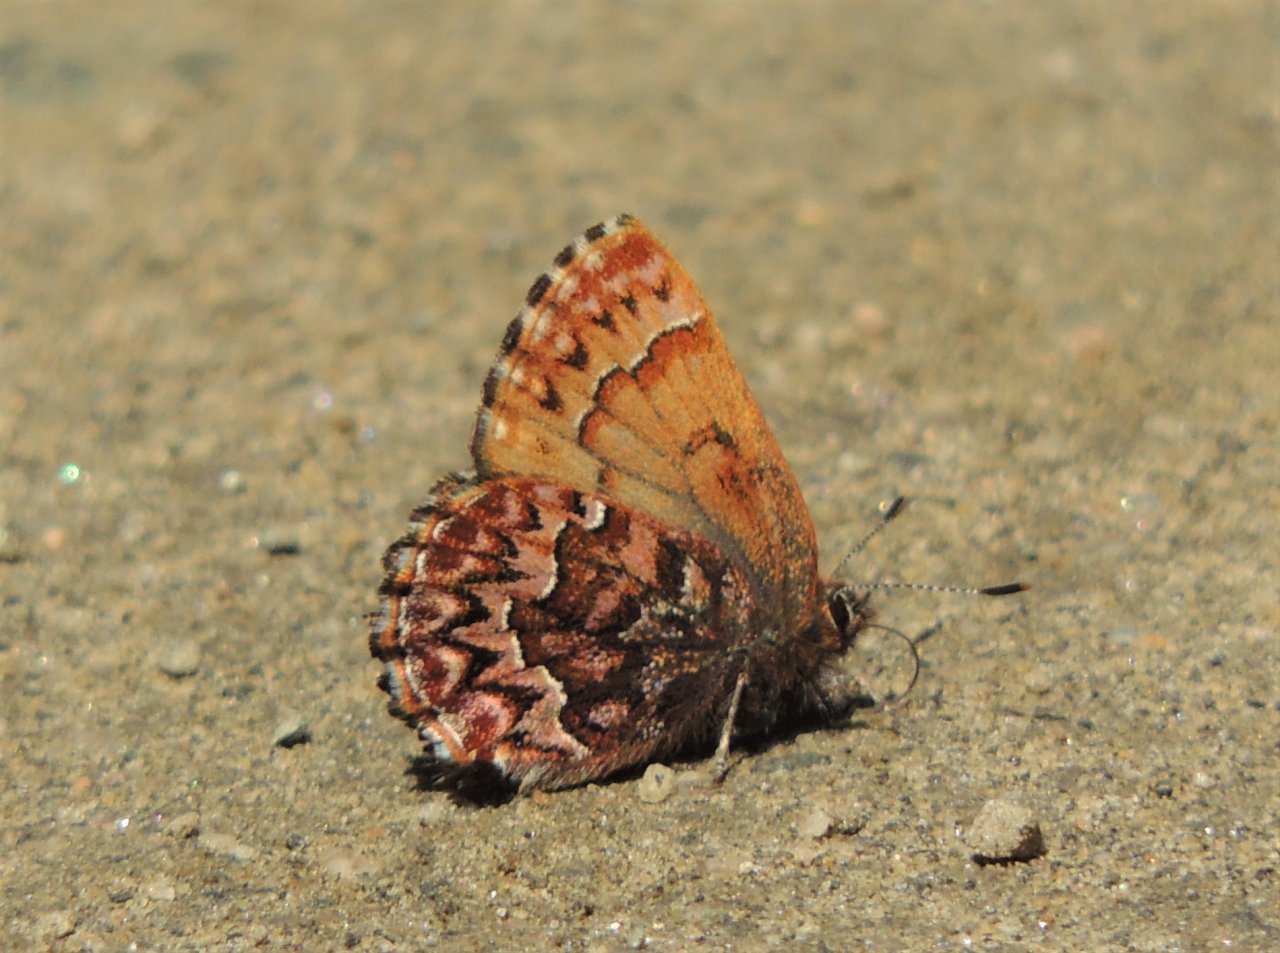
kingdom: Animalia
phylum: Arthropoda
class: Insecta
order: Lepidoptera
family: Lycaenidae
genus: Incisalia
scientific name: Incisalia eryphon
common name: Western Pine Elfin
